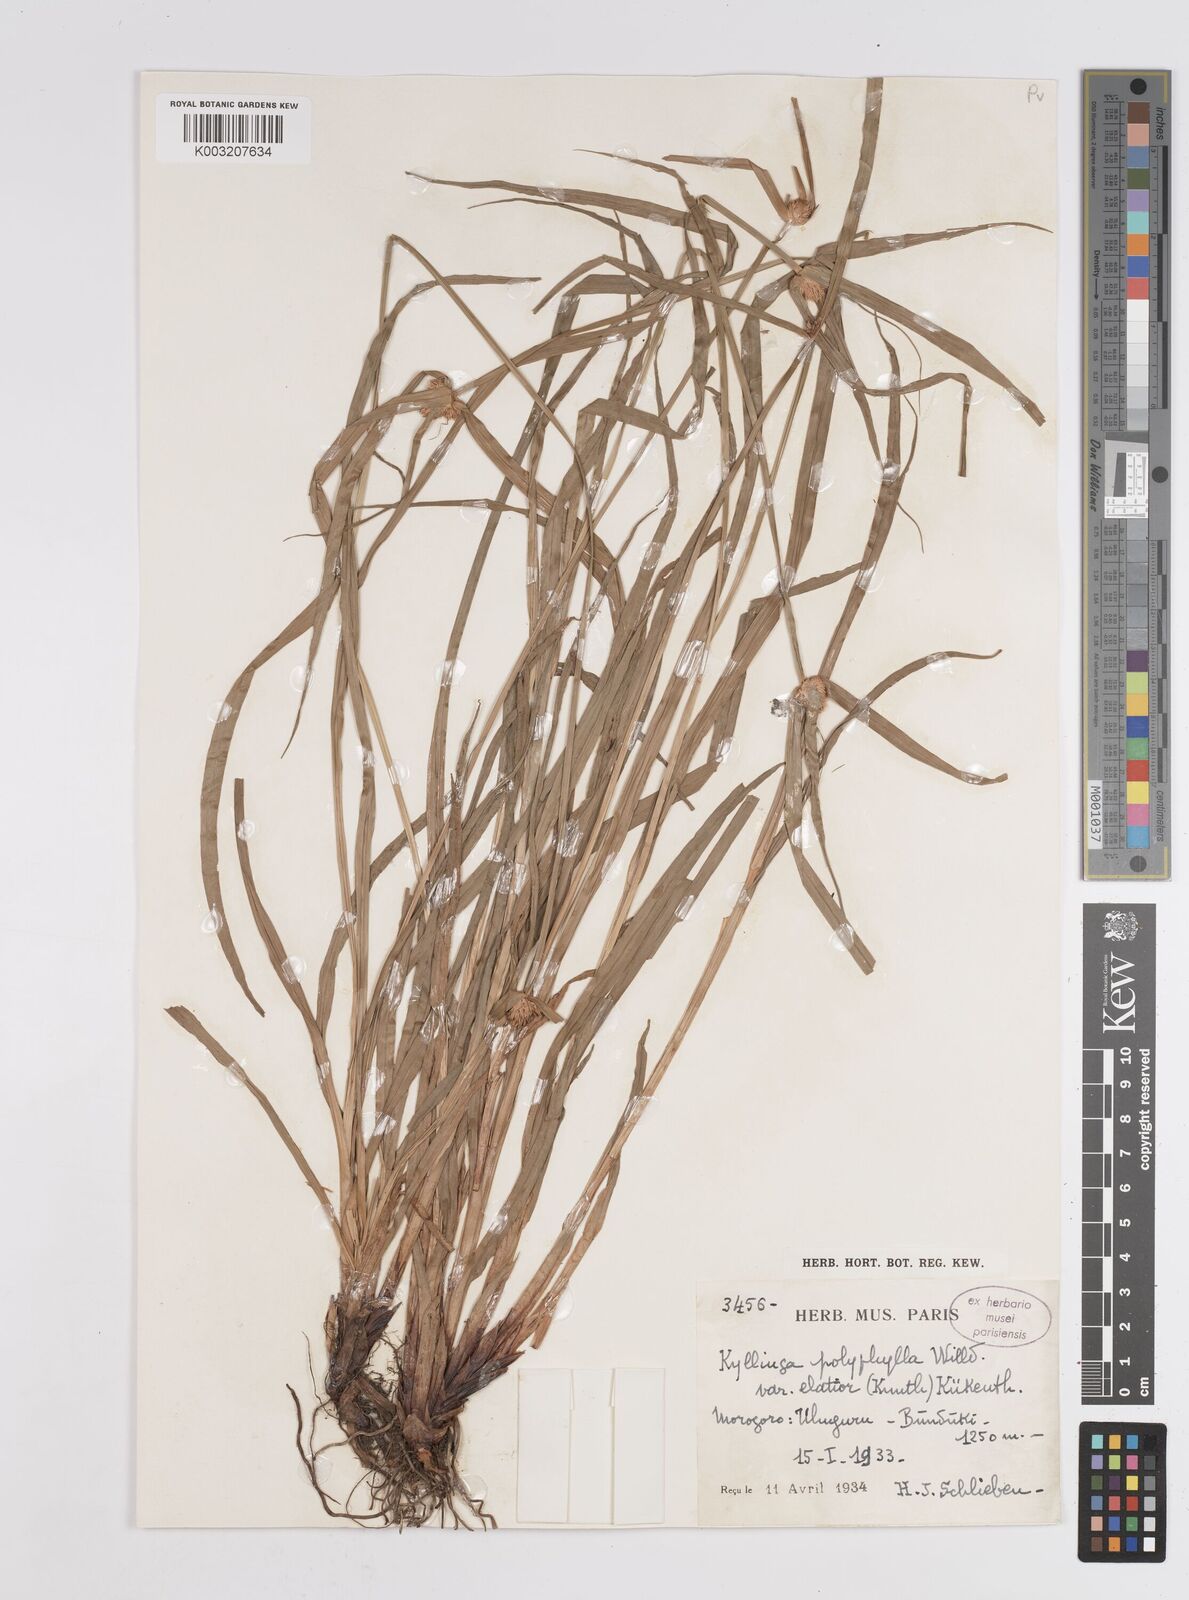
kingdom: Plantae
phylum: Tracheophyta
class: Liliopsida
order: Poales
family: Cyperaceae
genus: Cyperus
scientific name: Cyperus
